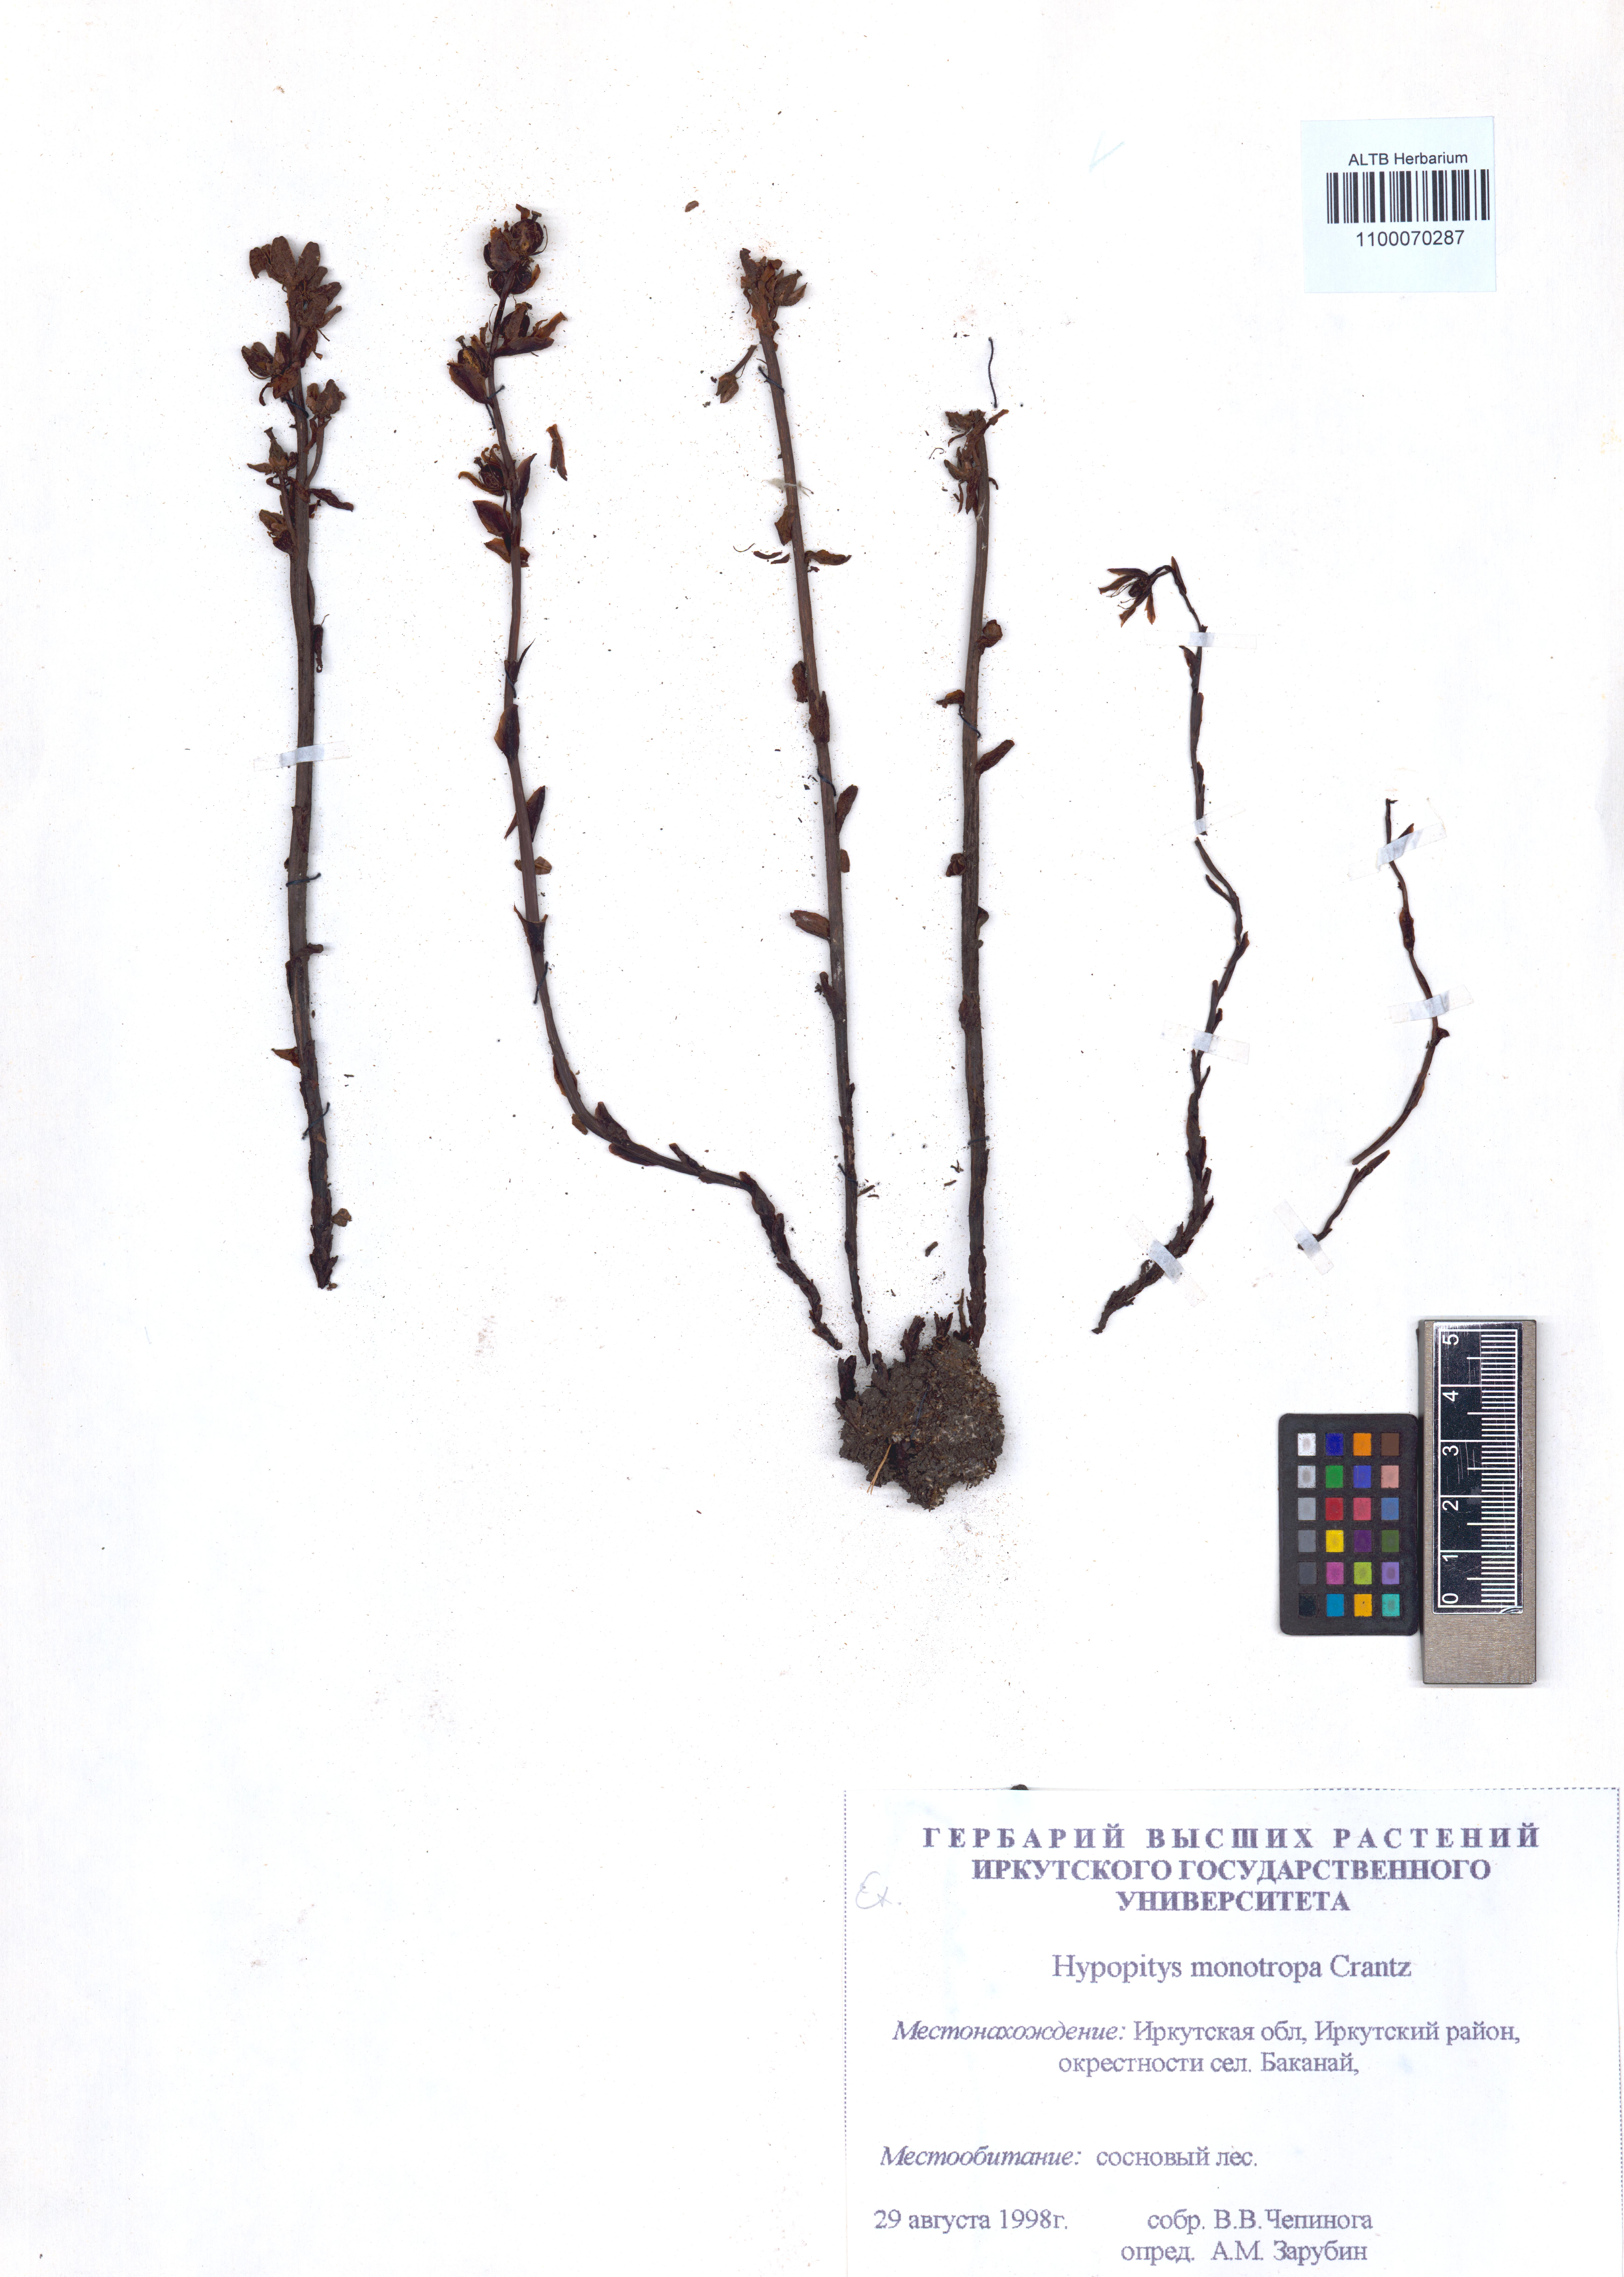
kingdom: Plantae
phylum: Tracheophyta
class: Magnoliopsida
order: Ericales
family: Ericaceae
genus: Hypopitys
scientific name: Hypopitys monotropa
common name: Yellow bird's-nest
